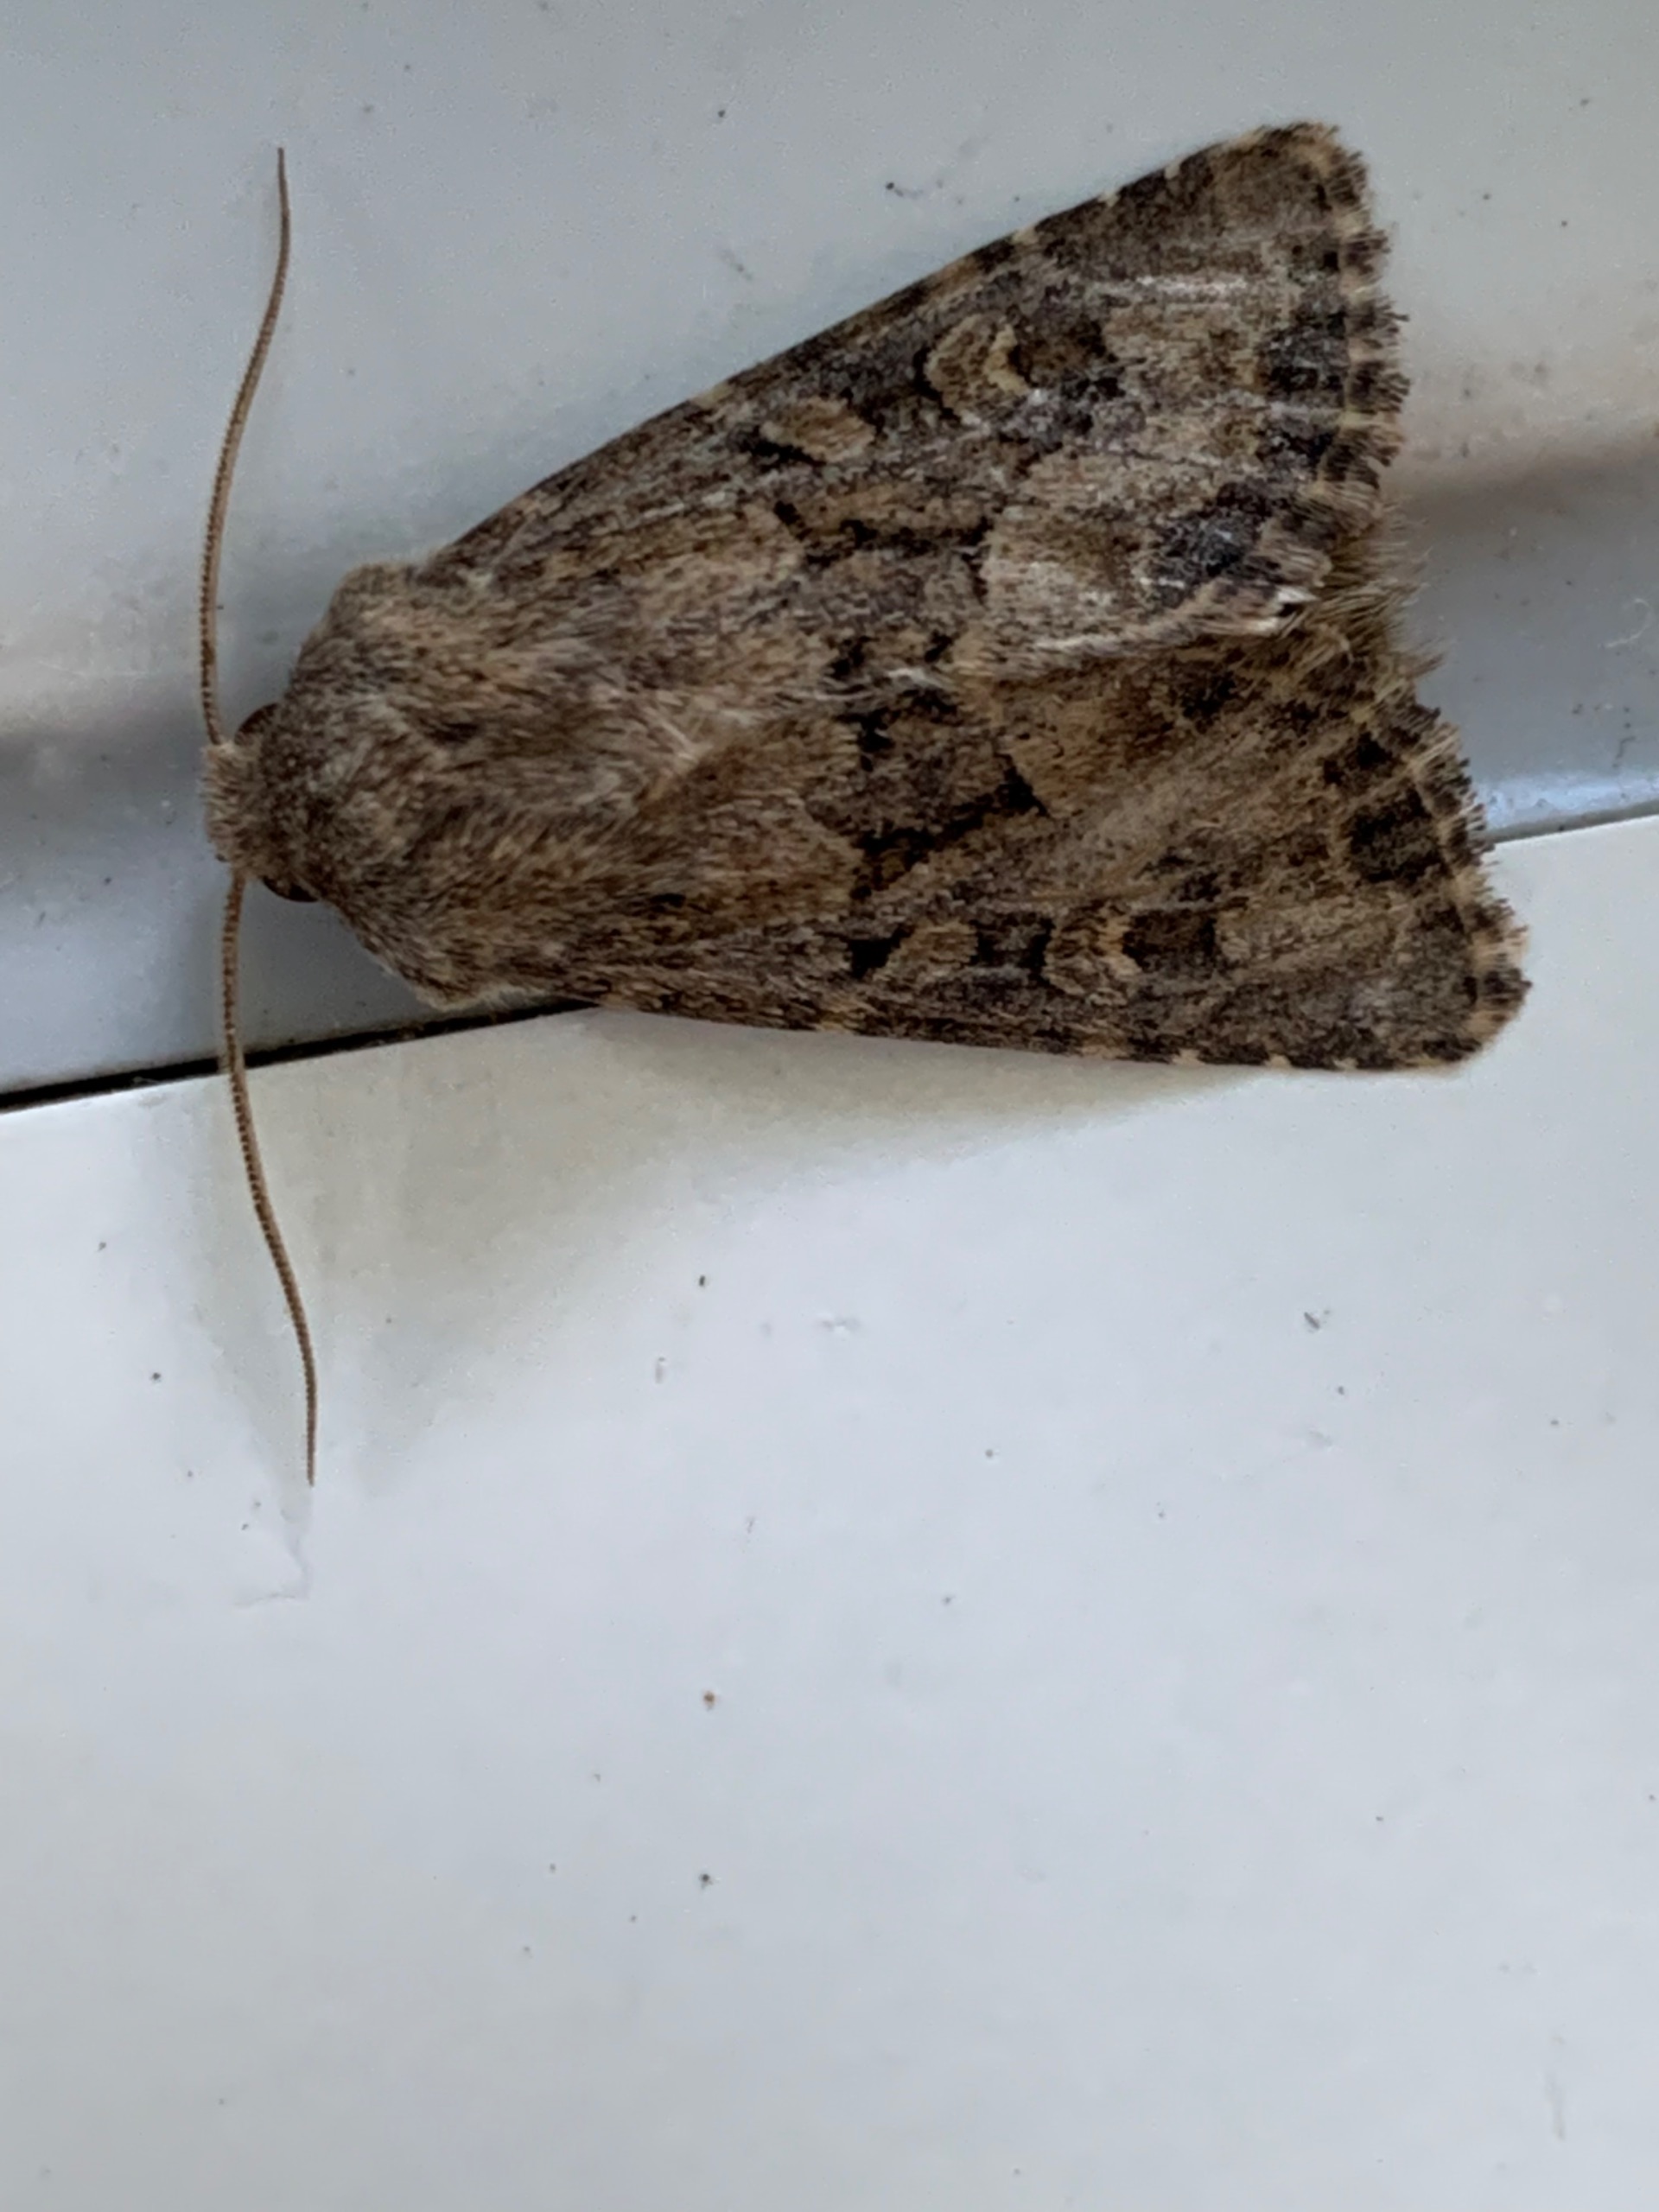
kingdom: Animalia
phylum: Arthropoda
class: Insecta
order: Lepidoptera
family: Noctuidae
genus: Luperina
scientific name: Luperina testacea
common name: Frøgræsugle
